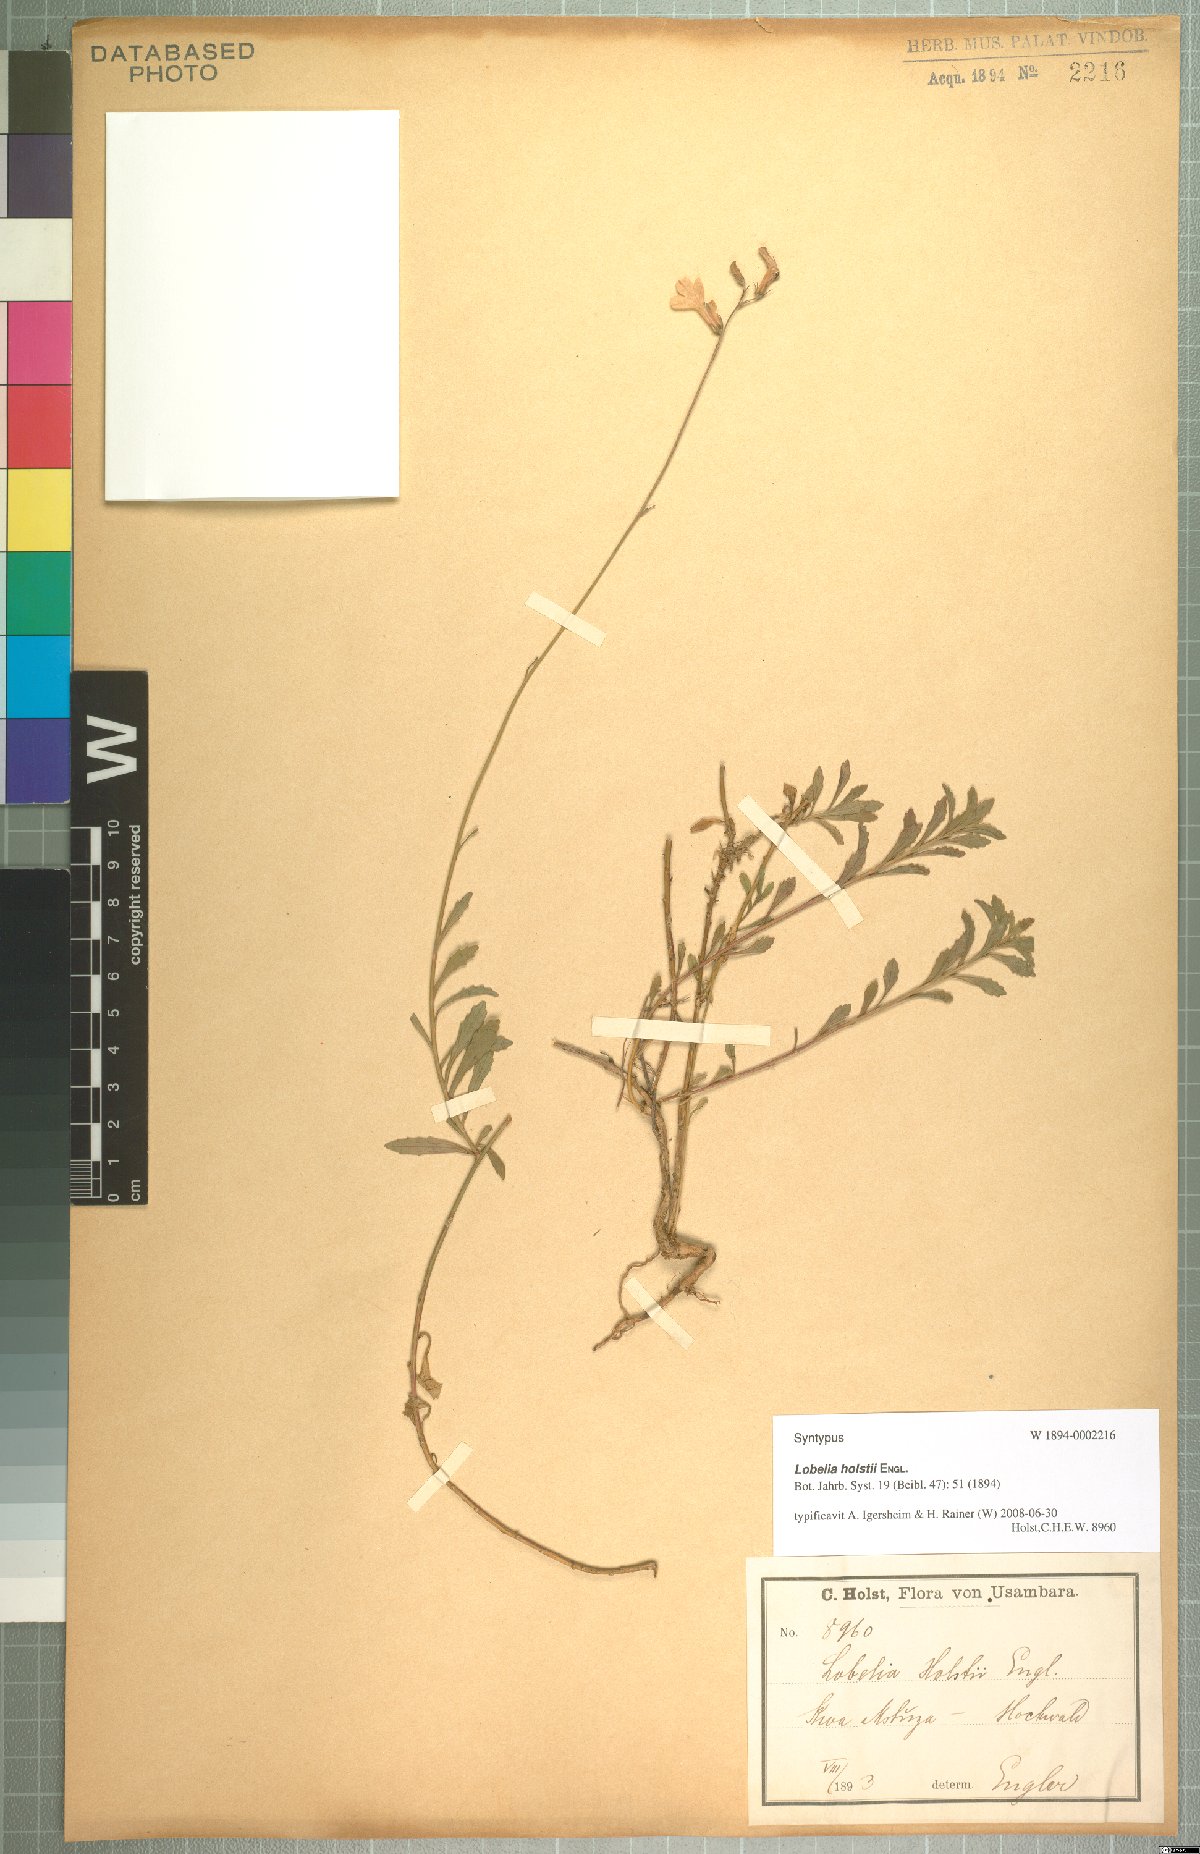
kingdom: Plantae
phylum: Tracheophyta
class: Magnoliopsida
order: Asterales
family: Campanulaceae
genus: Lobelia
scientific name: Lobelia holstii
